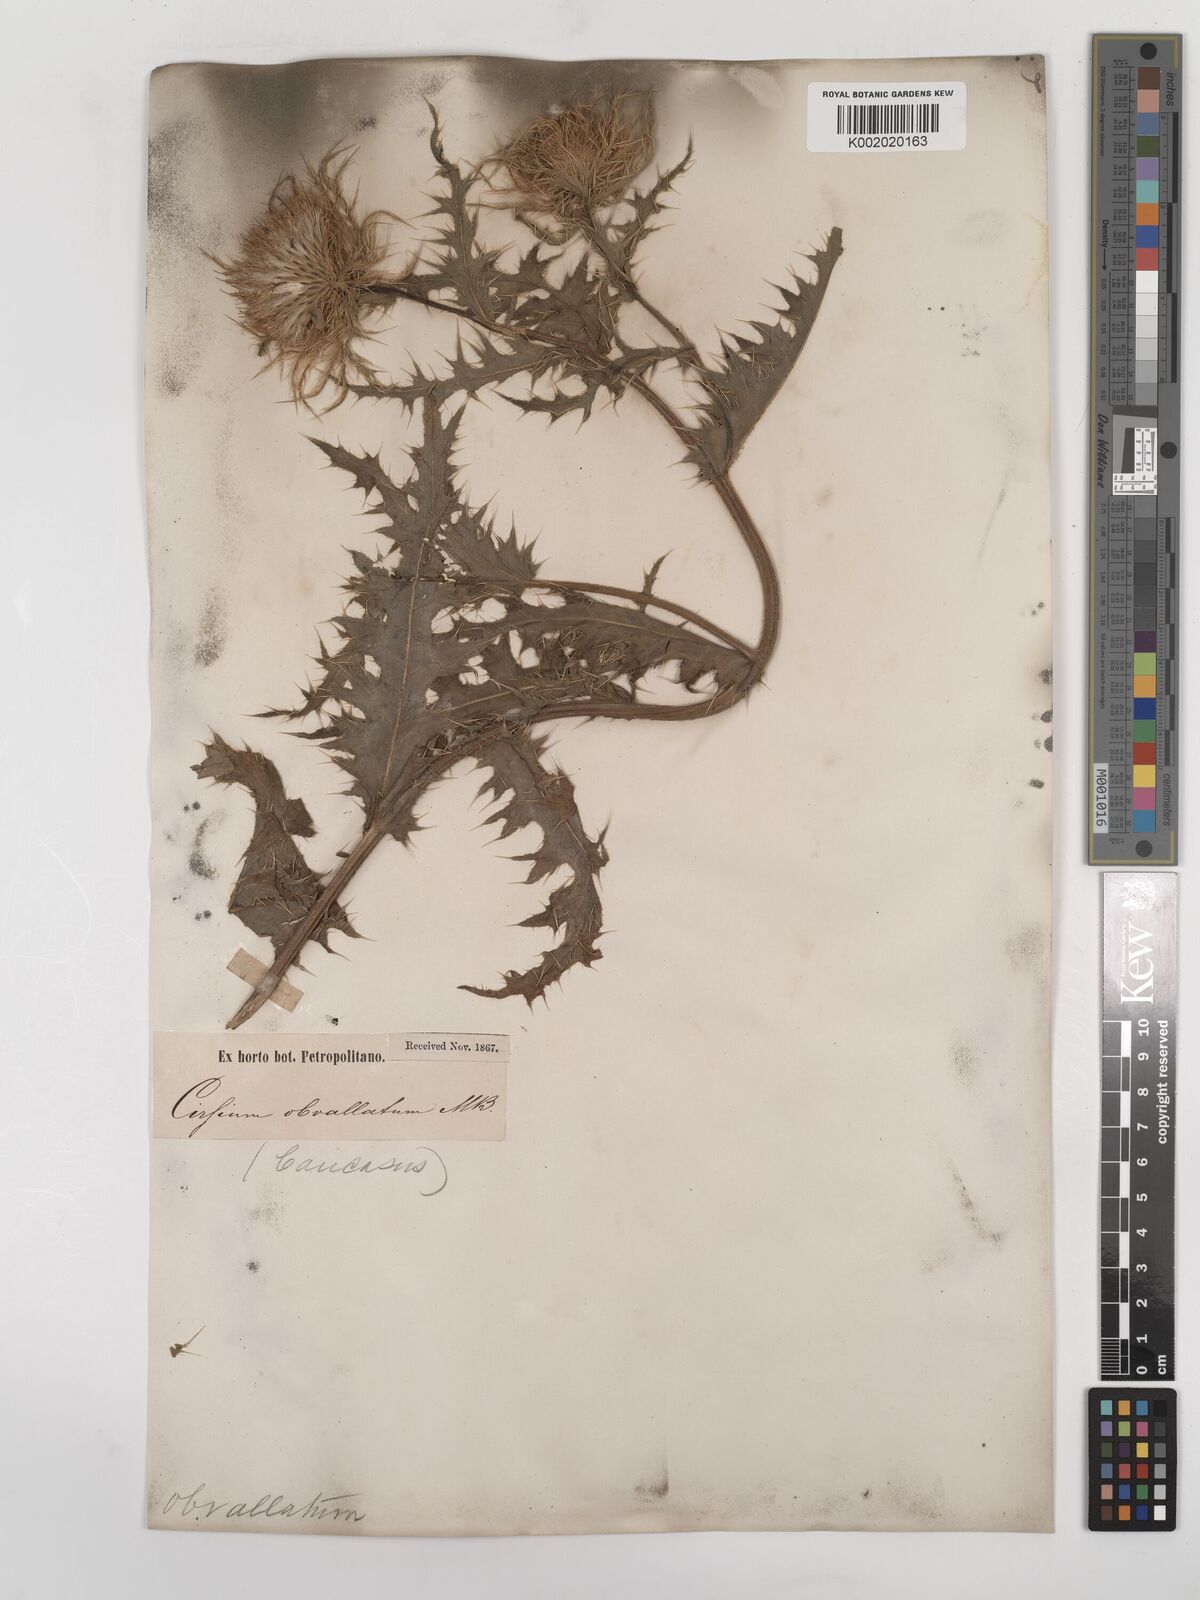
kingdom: Plantae
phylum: Tracheophyta
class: Magnoliopsida
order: Asterales
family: Asteraceae
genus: Cirsium
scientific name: Cirsium obvallatum
